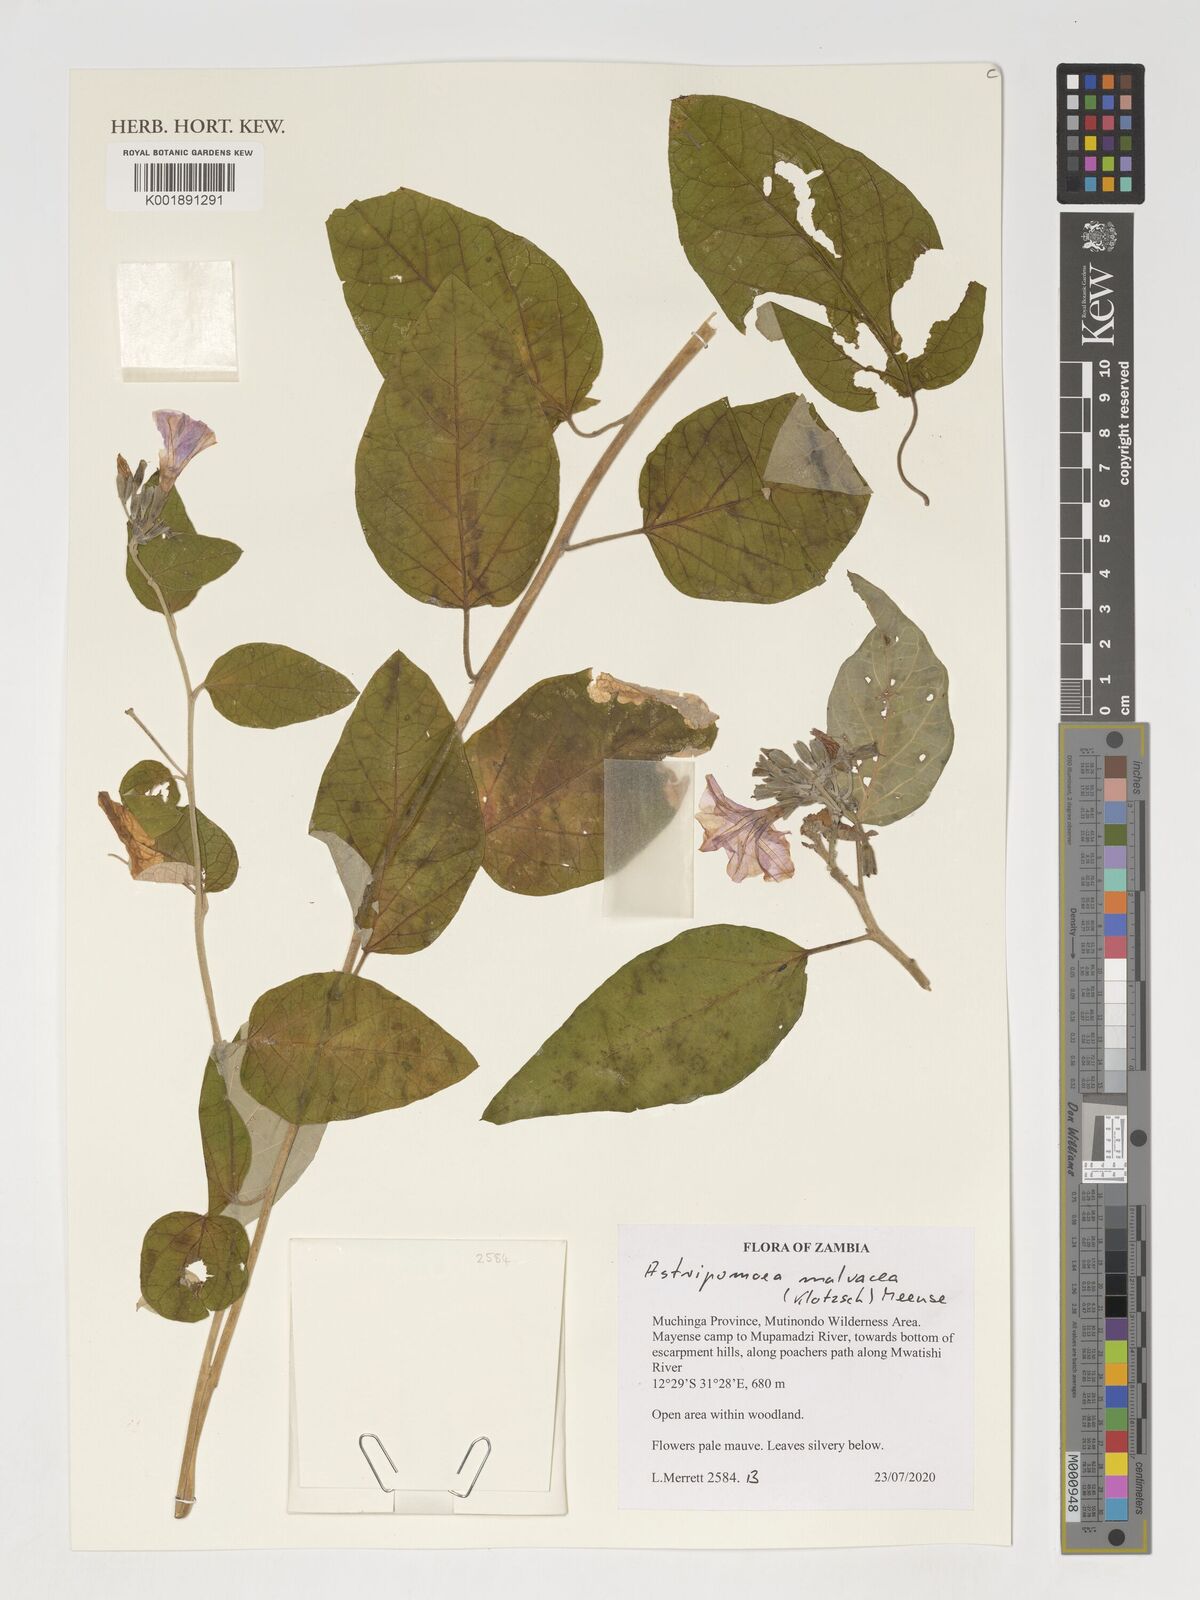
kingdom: Plantae
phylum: Tracheophyta
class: Magnoliopsida
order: Solanales
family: Convolvulaceae
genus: Astripomoea
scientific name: Astripomoea malvacea
